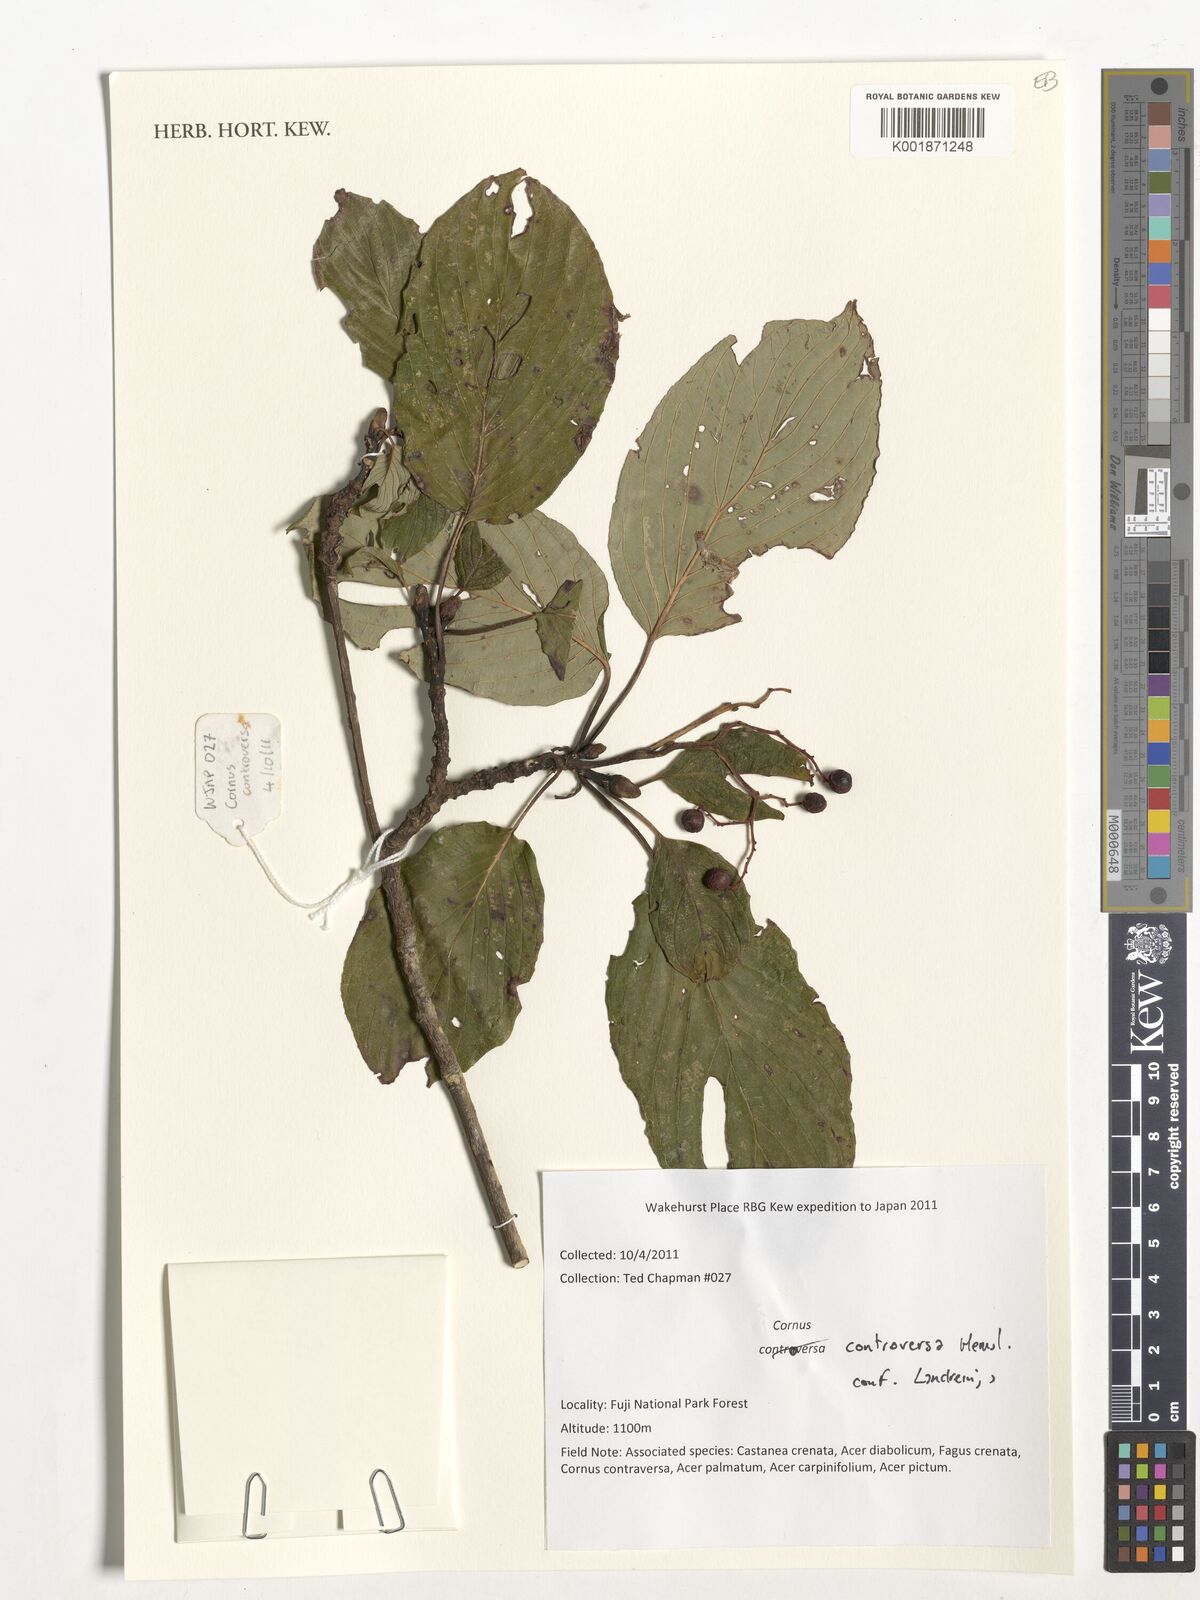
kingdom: Plantae
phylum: Tracheophyta
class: Magnoliopsida
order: Cornales
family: Cornaceae
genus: Cornus
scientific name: Cornus controversa
